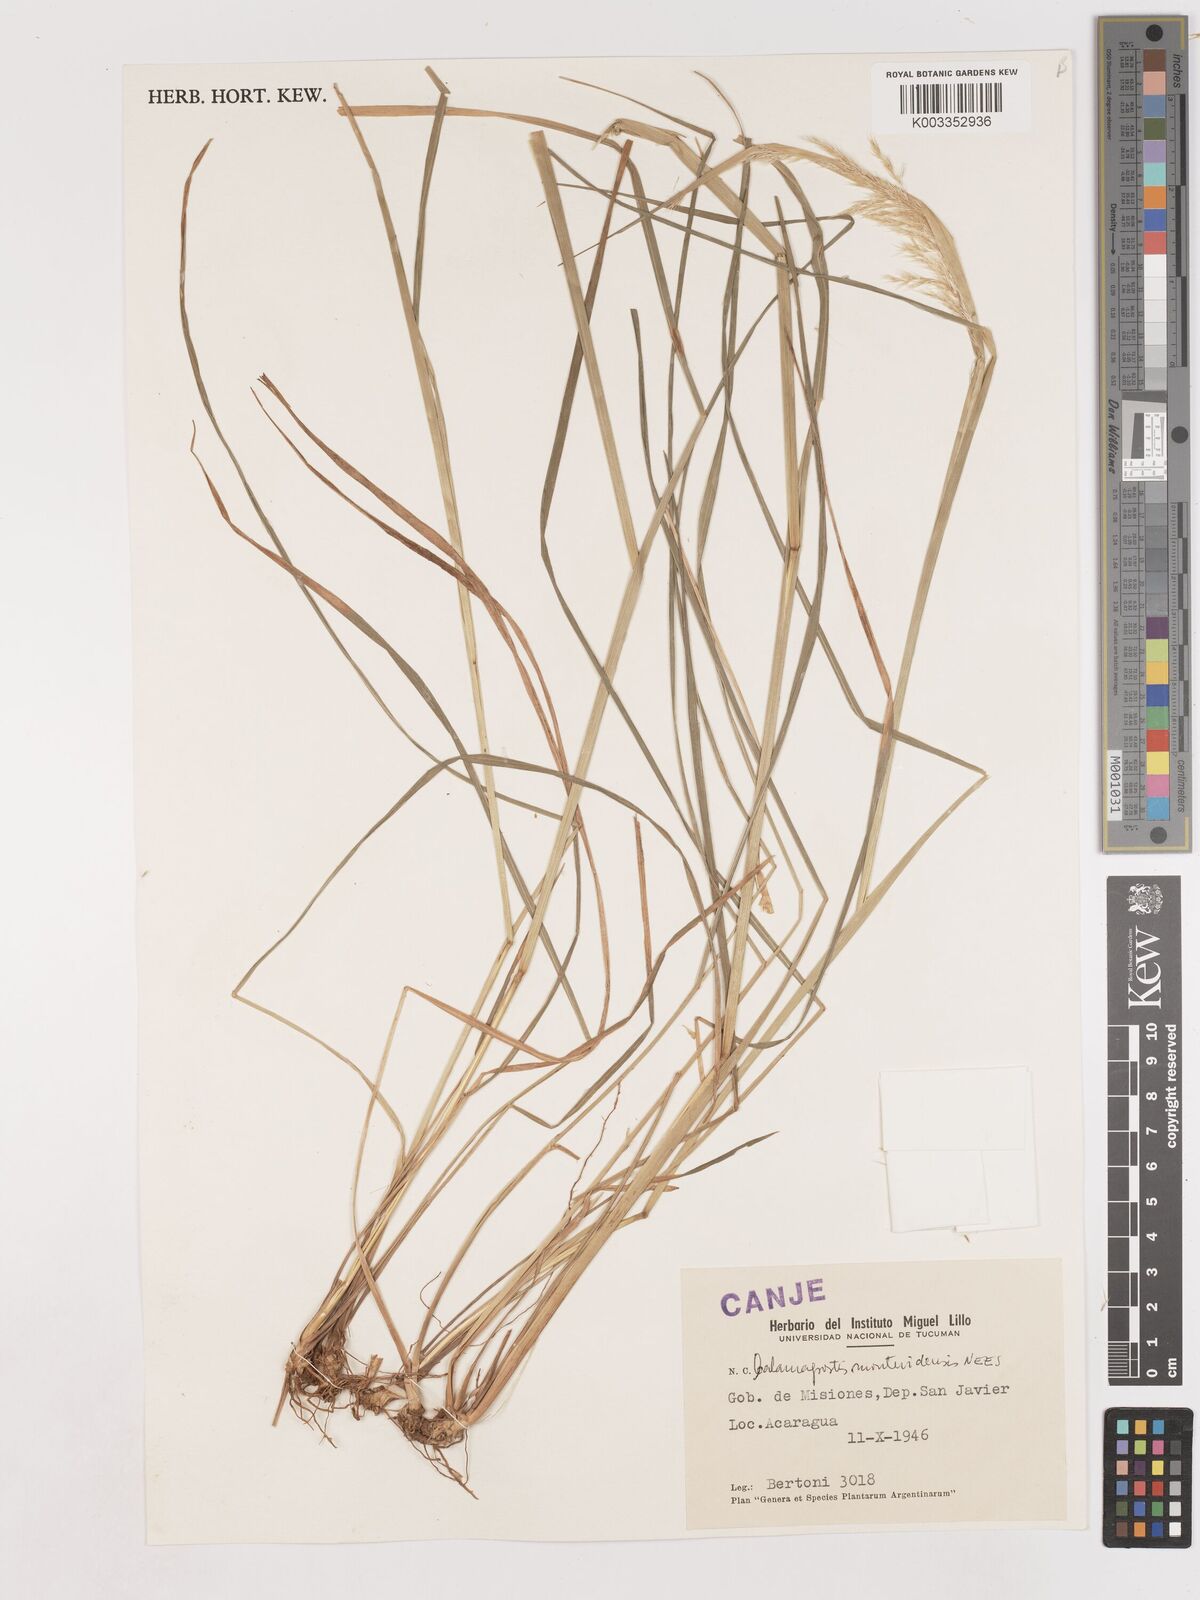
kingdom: Plantae
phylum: Tracheophyta
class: Liliopsida
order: Poales
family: Poaceae
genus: Cinnagrostis
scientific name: Cinnagrostis viridiflavescens
